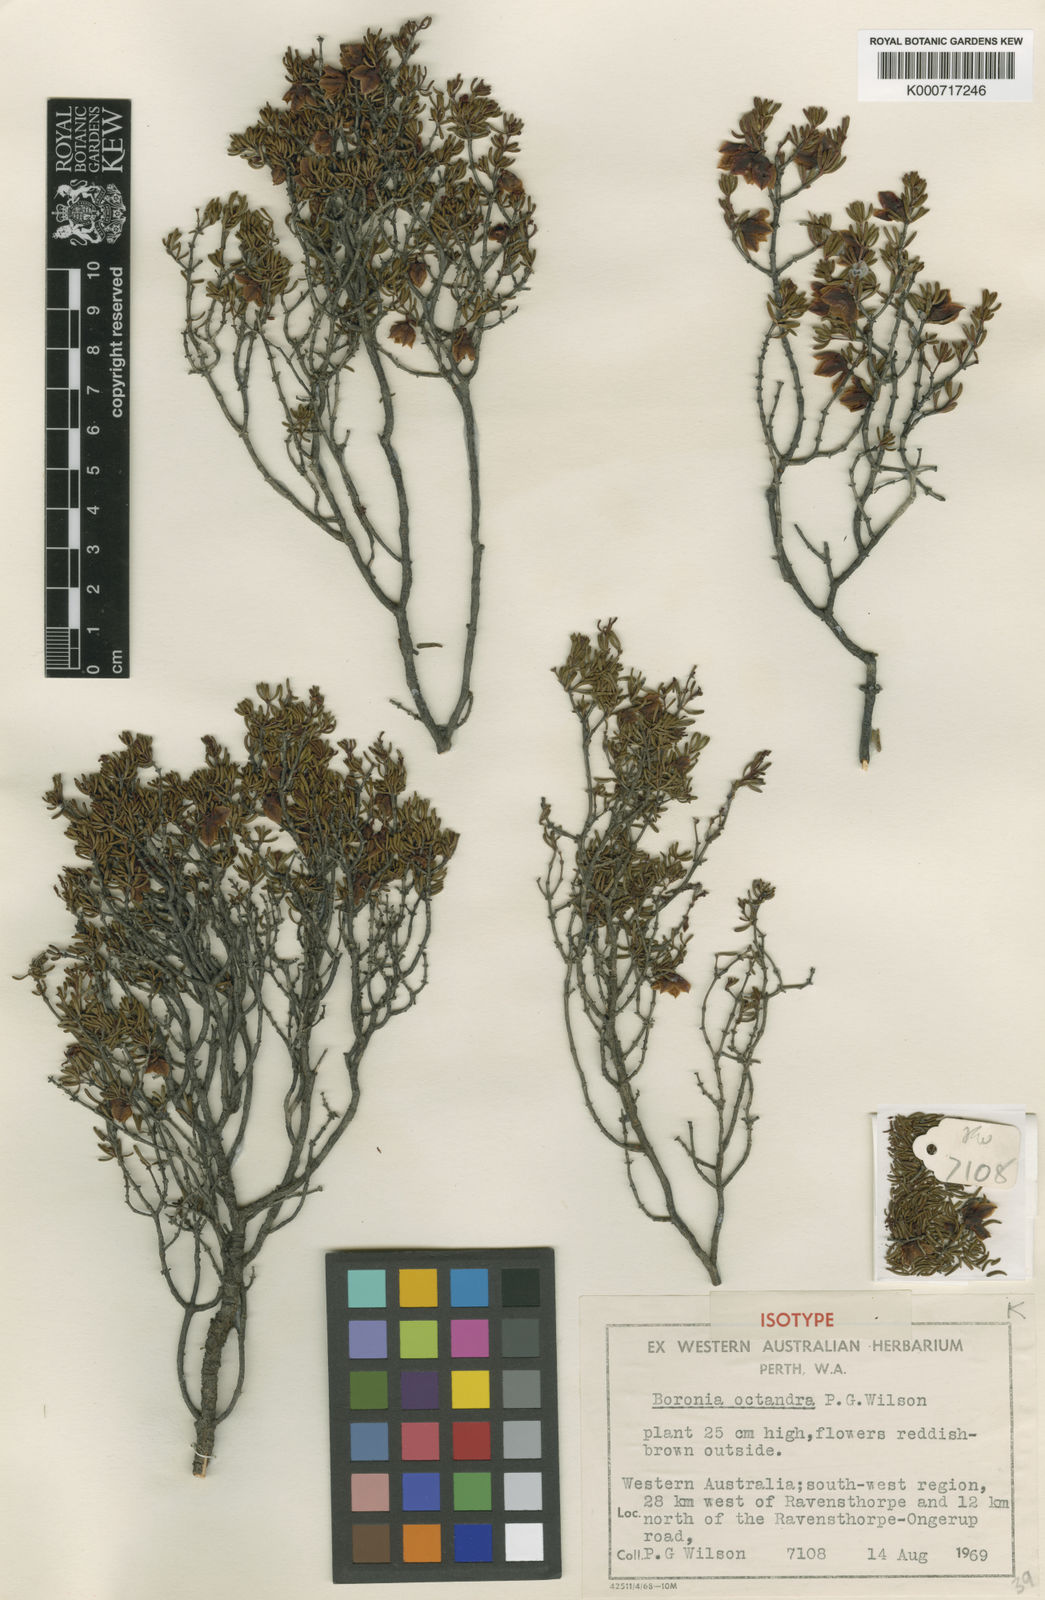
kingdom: Plantae
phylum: Tracheophyta
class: Magnoliopsida
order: Sapindales
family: Rutaceae
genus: Boronia
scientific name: Boronia octandra
